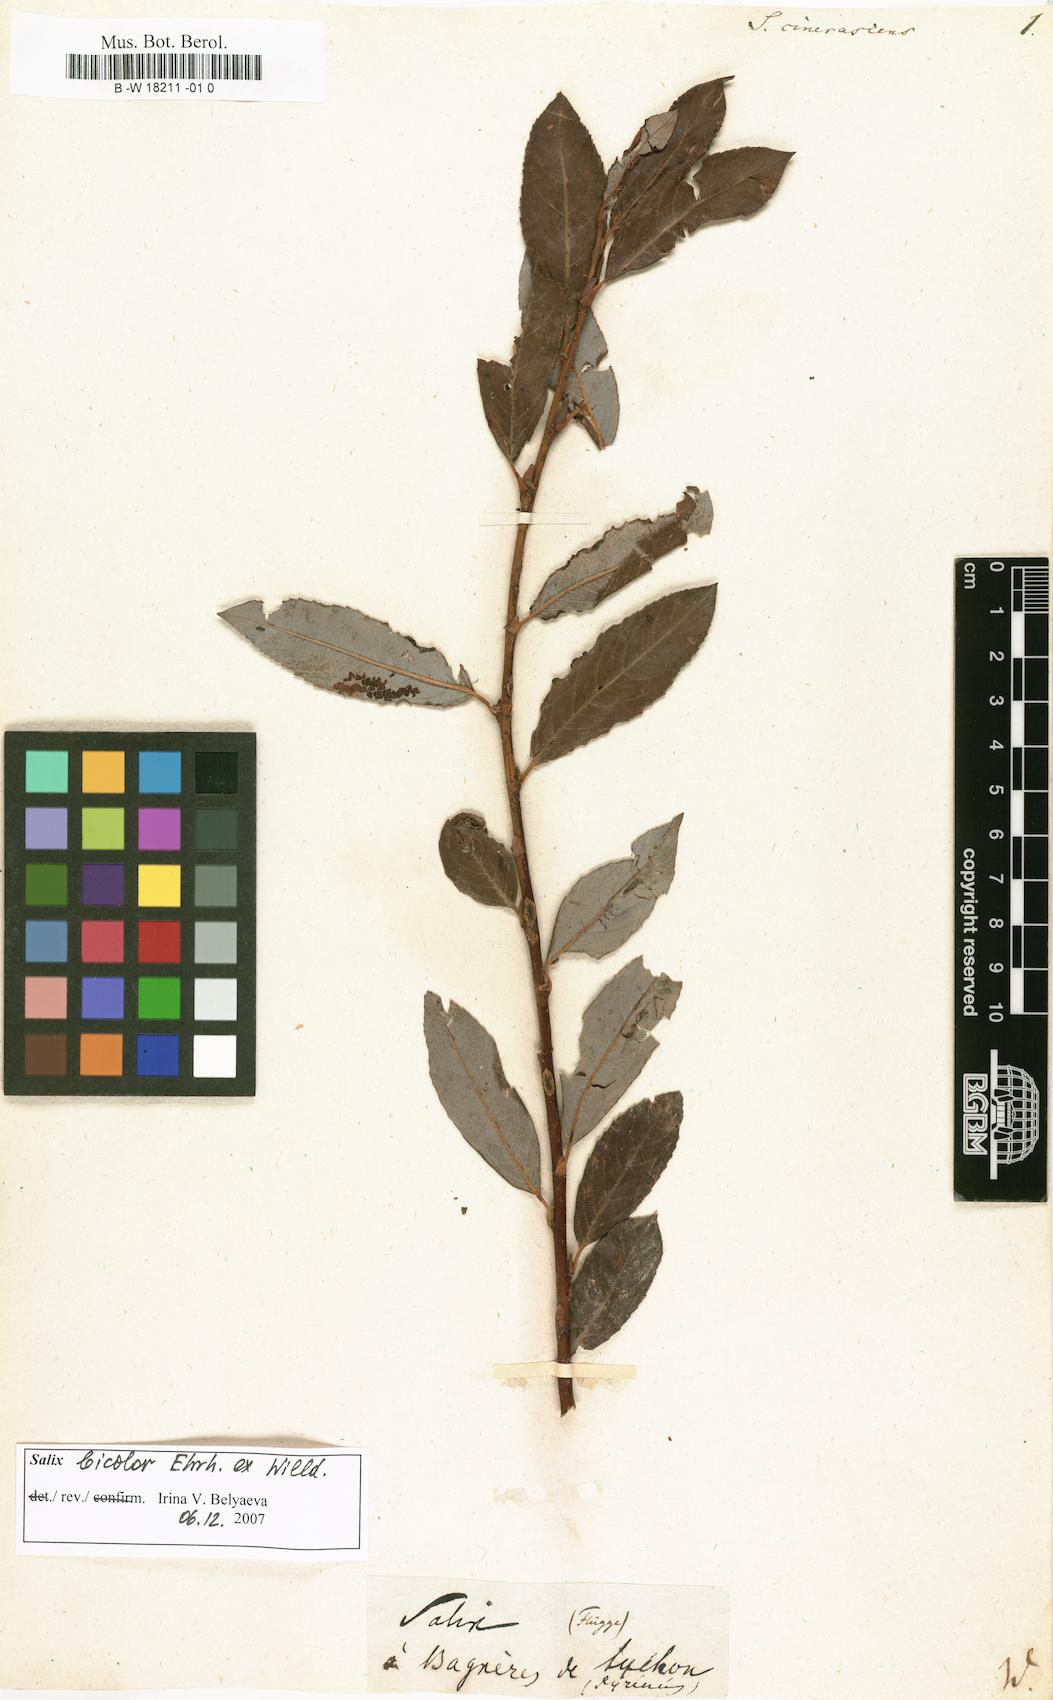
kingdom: Plantae
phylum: Tracheophyta
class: Magnoliopsida
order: Malpighiales
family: Salicaceae
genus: Salix
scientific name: Salix bebbiana
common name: Bebb's willow
